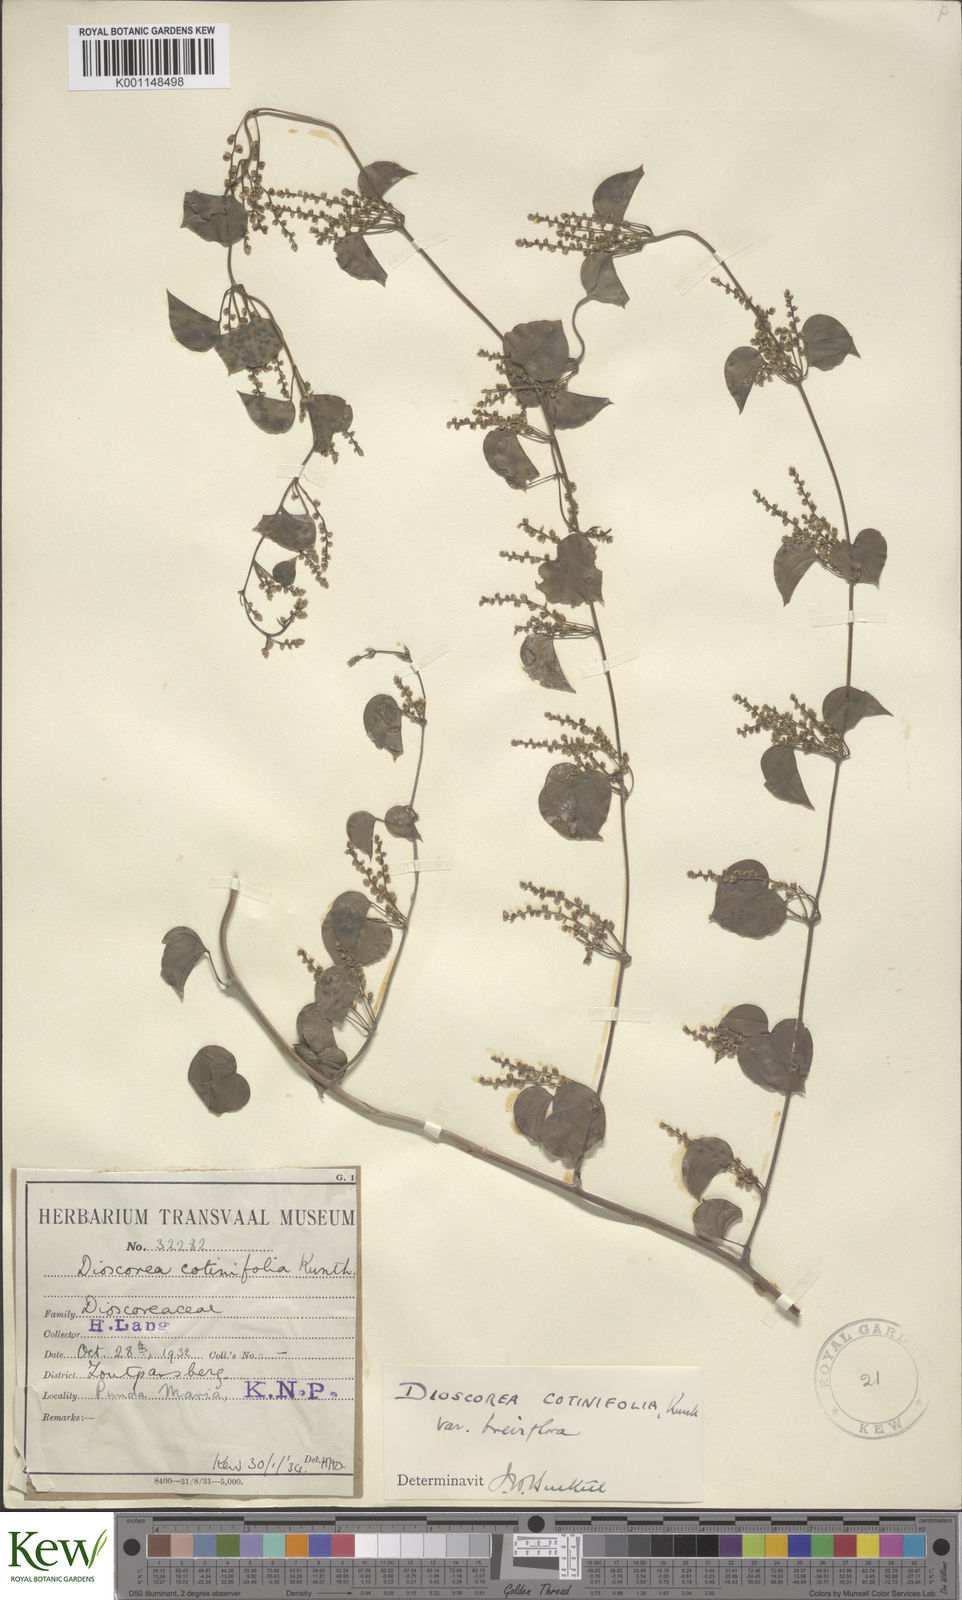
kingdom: Plantae
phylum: Tracheophyta
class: Liliopsida
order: Dioscoreales
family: Dioscoreaceae
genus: Dioscorea
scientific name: Dioscorea cotinifolia
